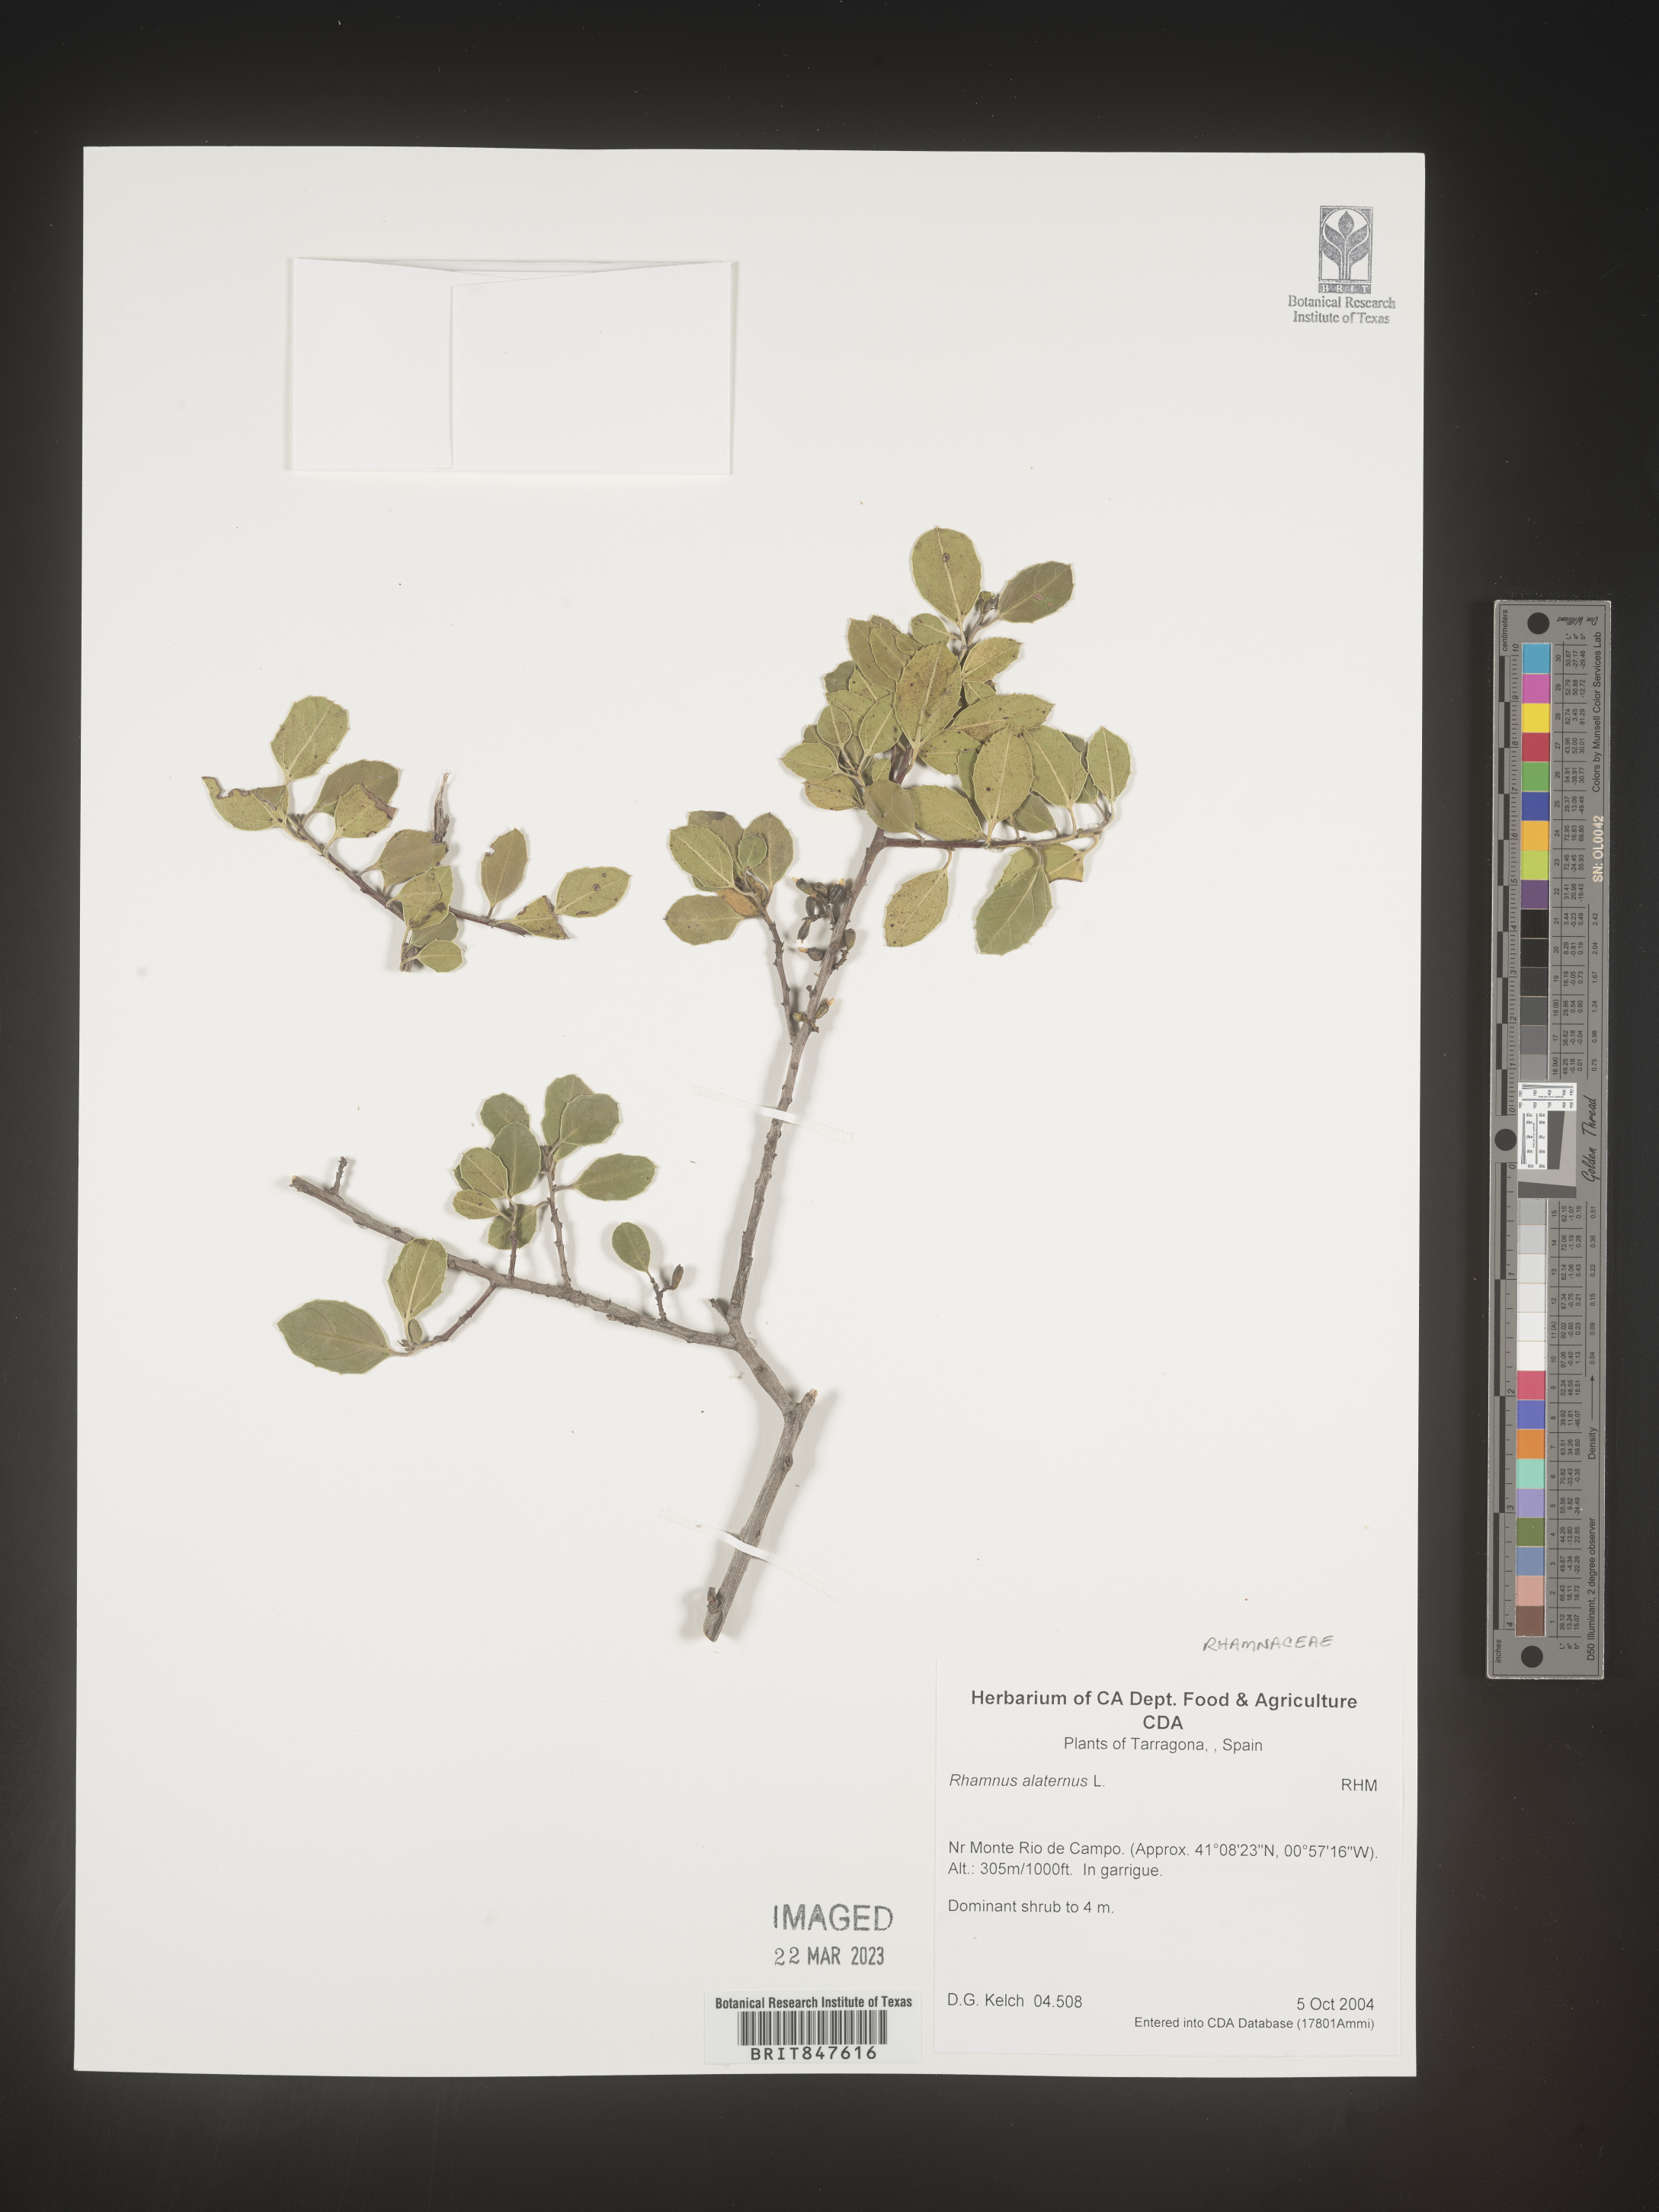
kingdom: Plantae
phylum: Tracheophyta
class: Magnoliopsida
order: Rosales
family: Rhamnaceae
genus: Rhamnus
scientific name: Rhamnus
